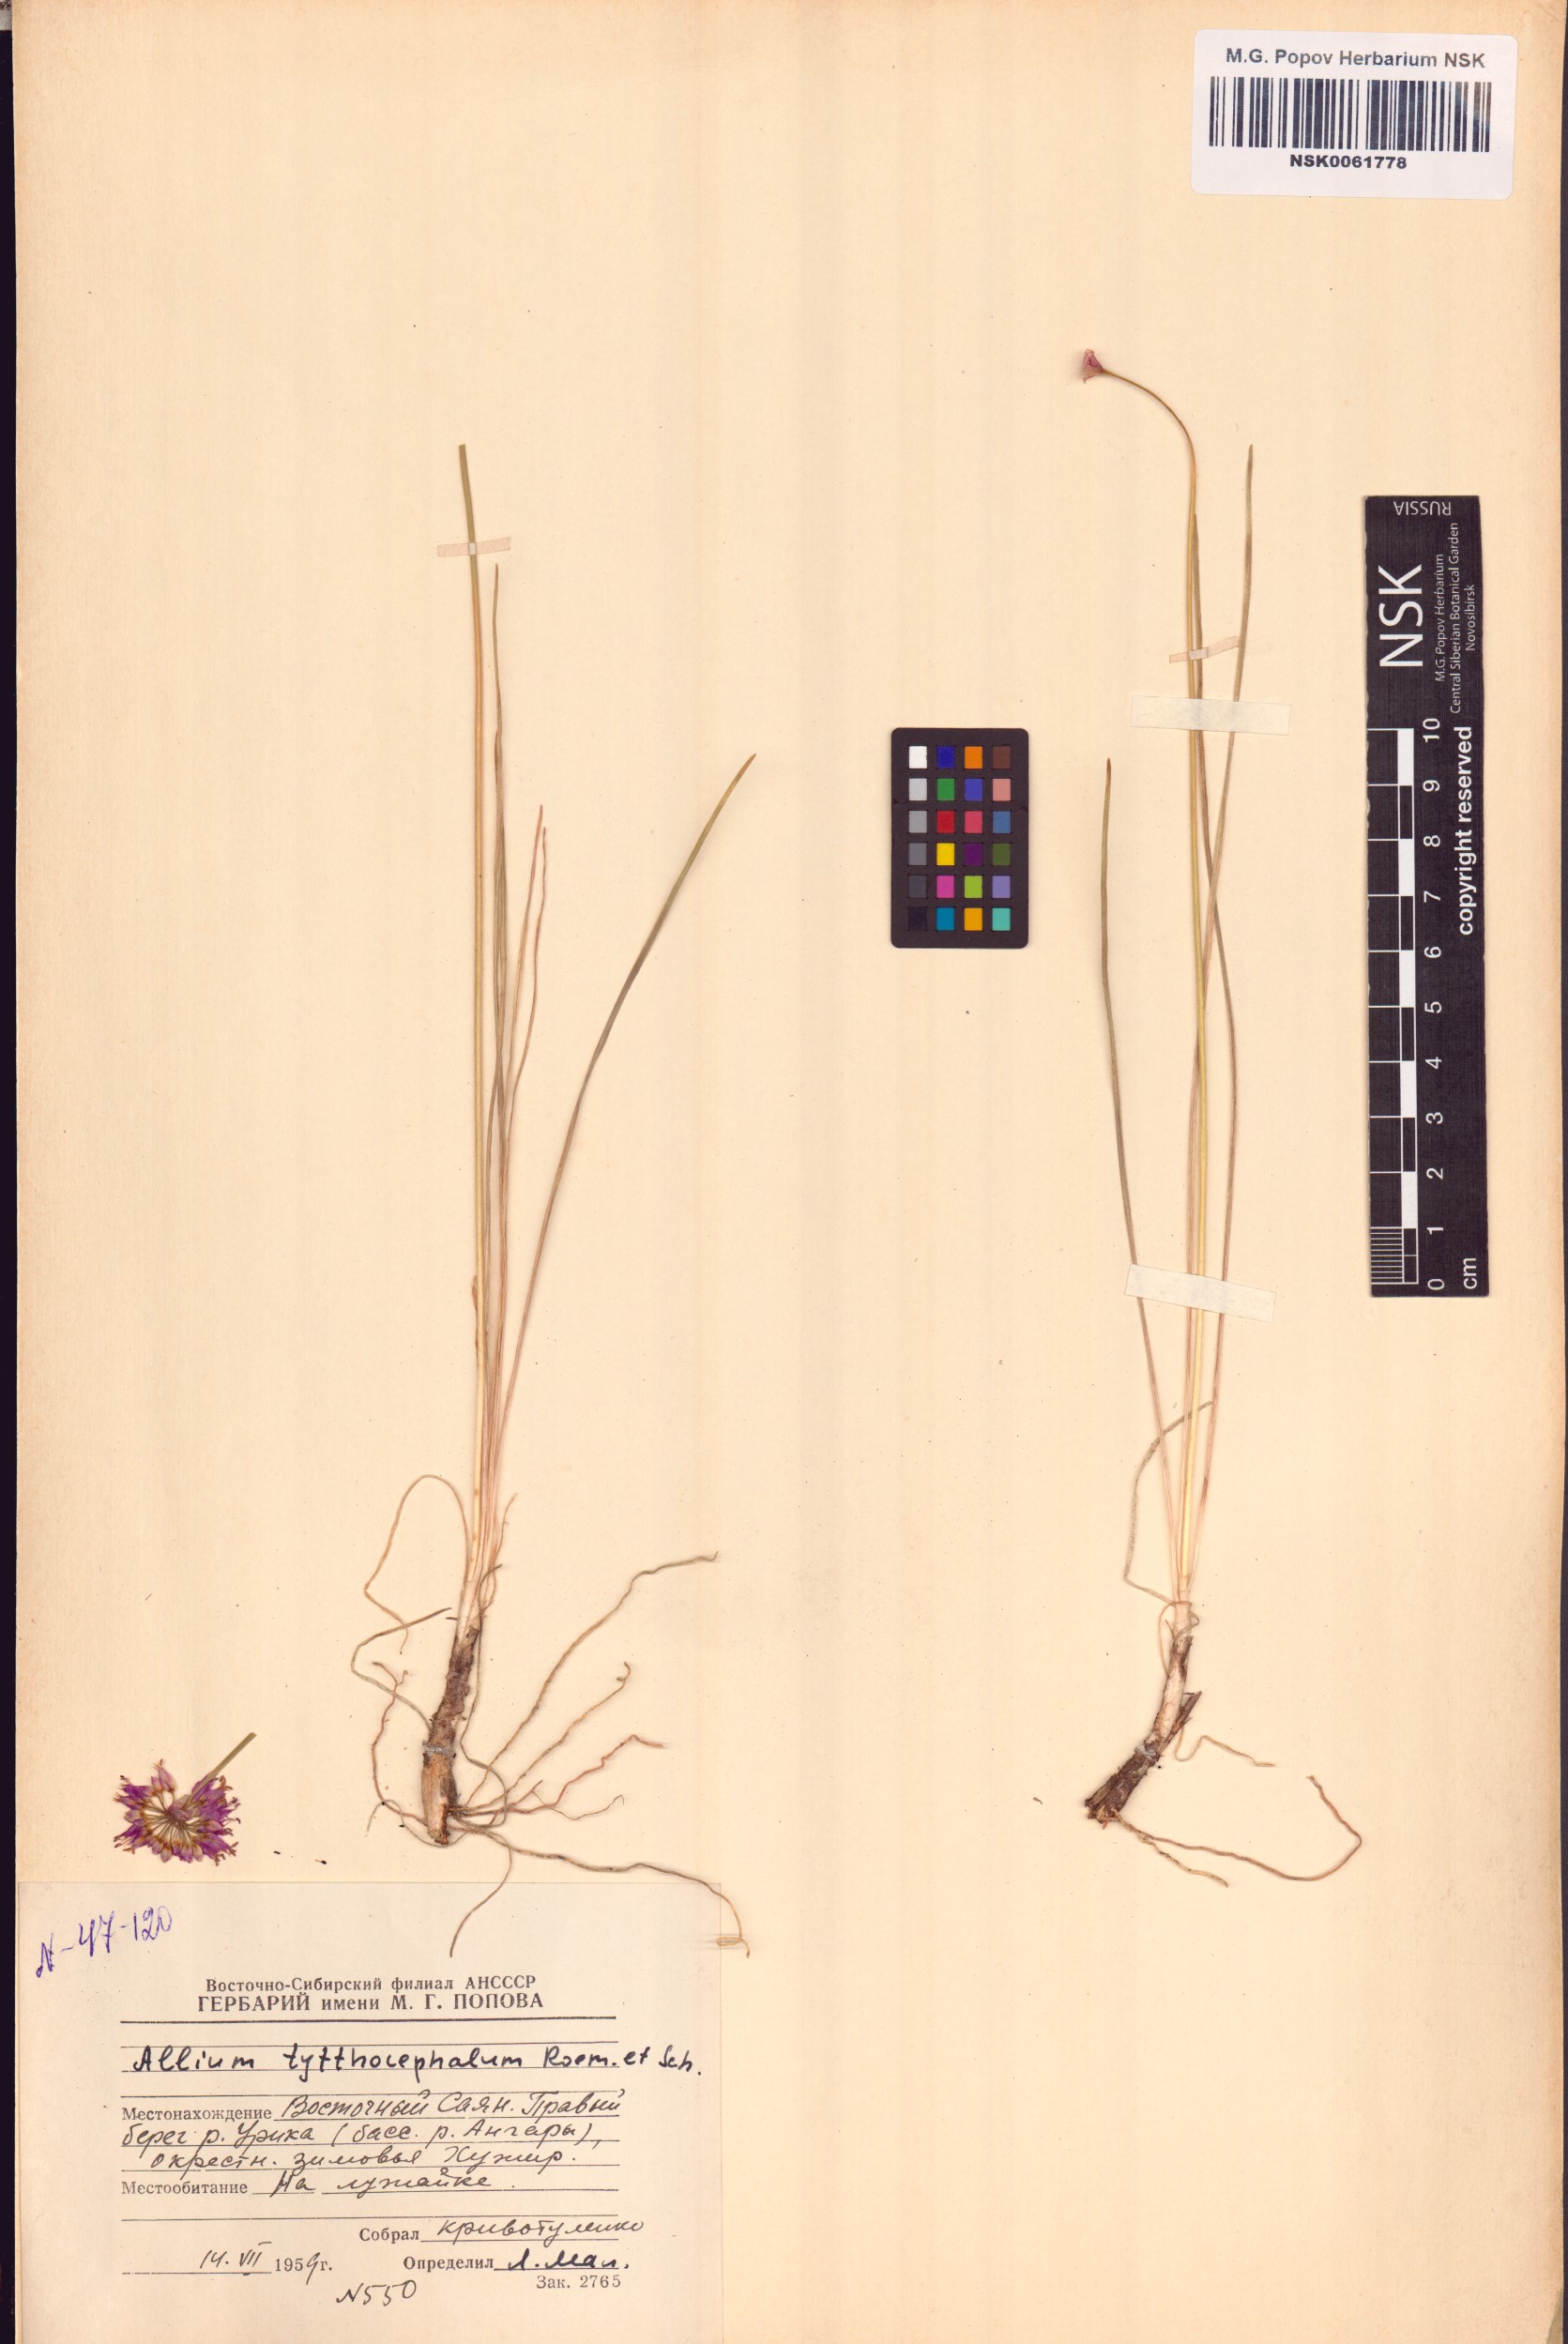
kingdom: Plantae
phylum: Tracheophyta
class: Liliopsida
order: Asparagales
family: Amaryllidaceae
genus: Allium
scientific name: Allium tytthocephalum
